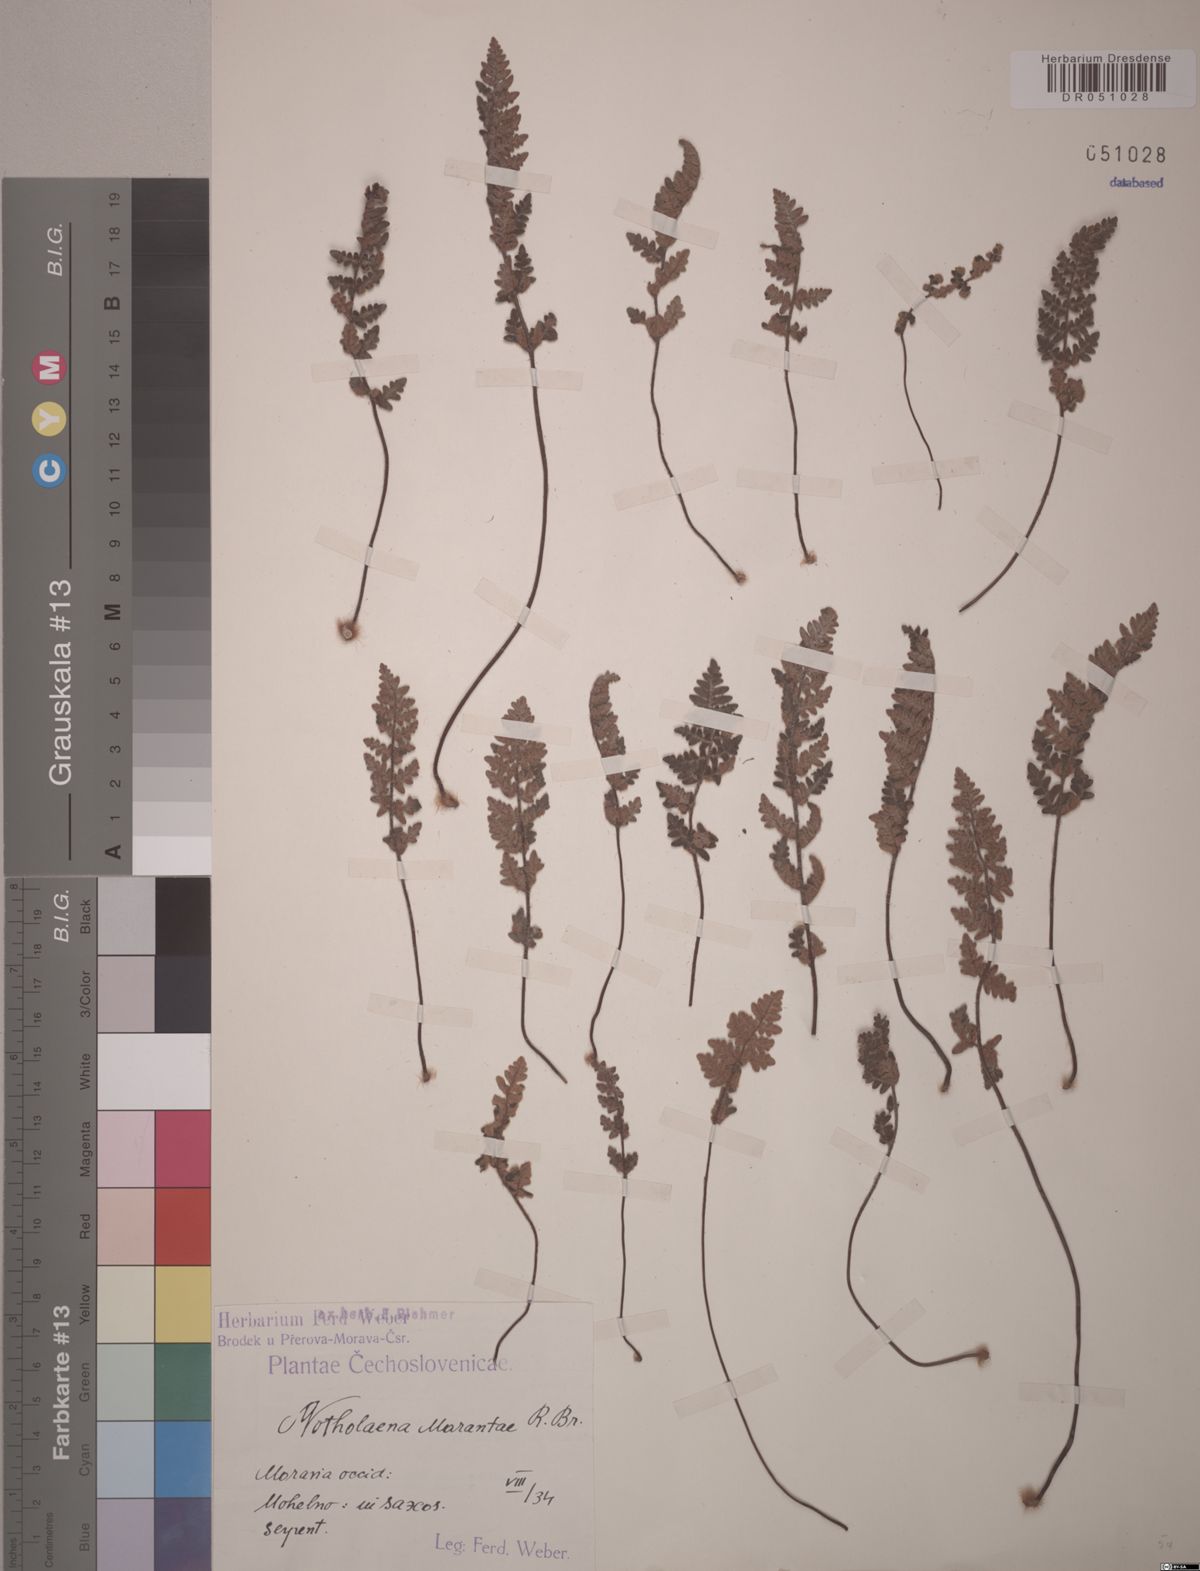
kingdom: Plantae
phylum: Tracheophyta
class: Polypodiopsida
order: Polypodiales
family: Pteridaceae
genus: Paragymnopteris
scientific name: Paragymnopteris marantae
